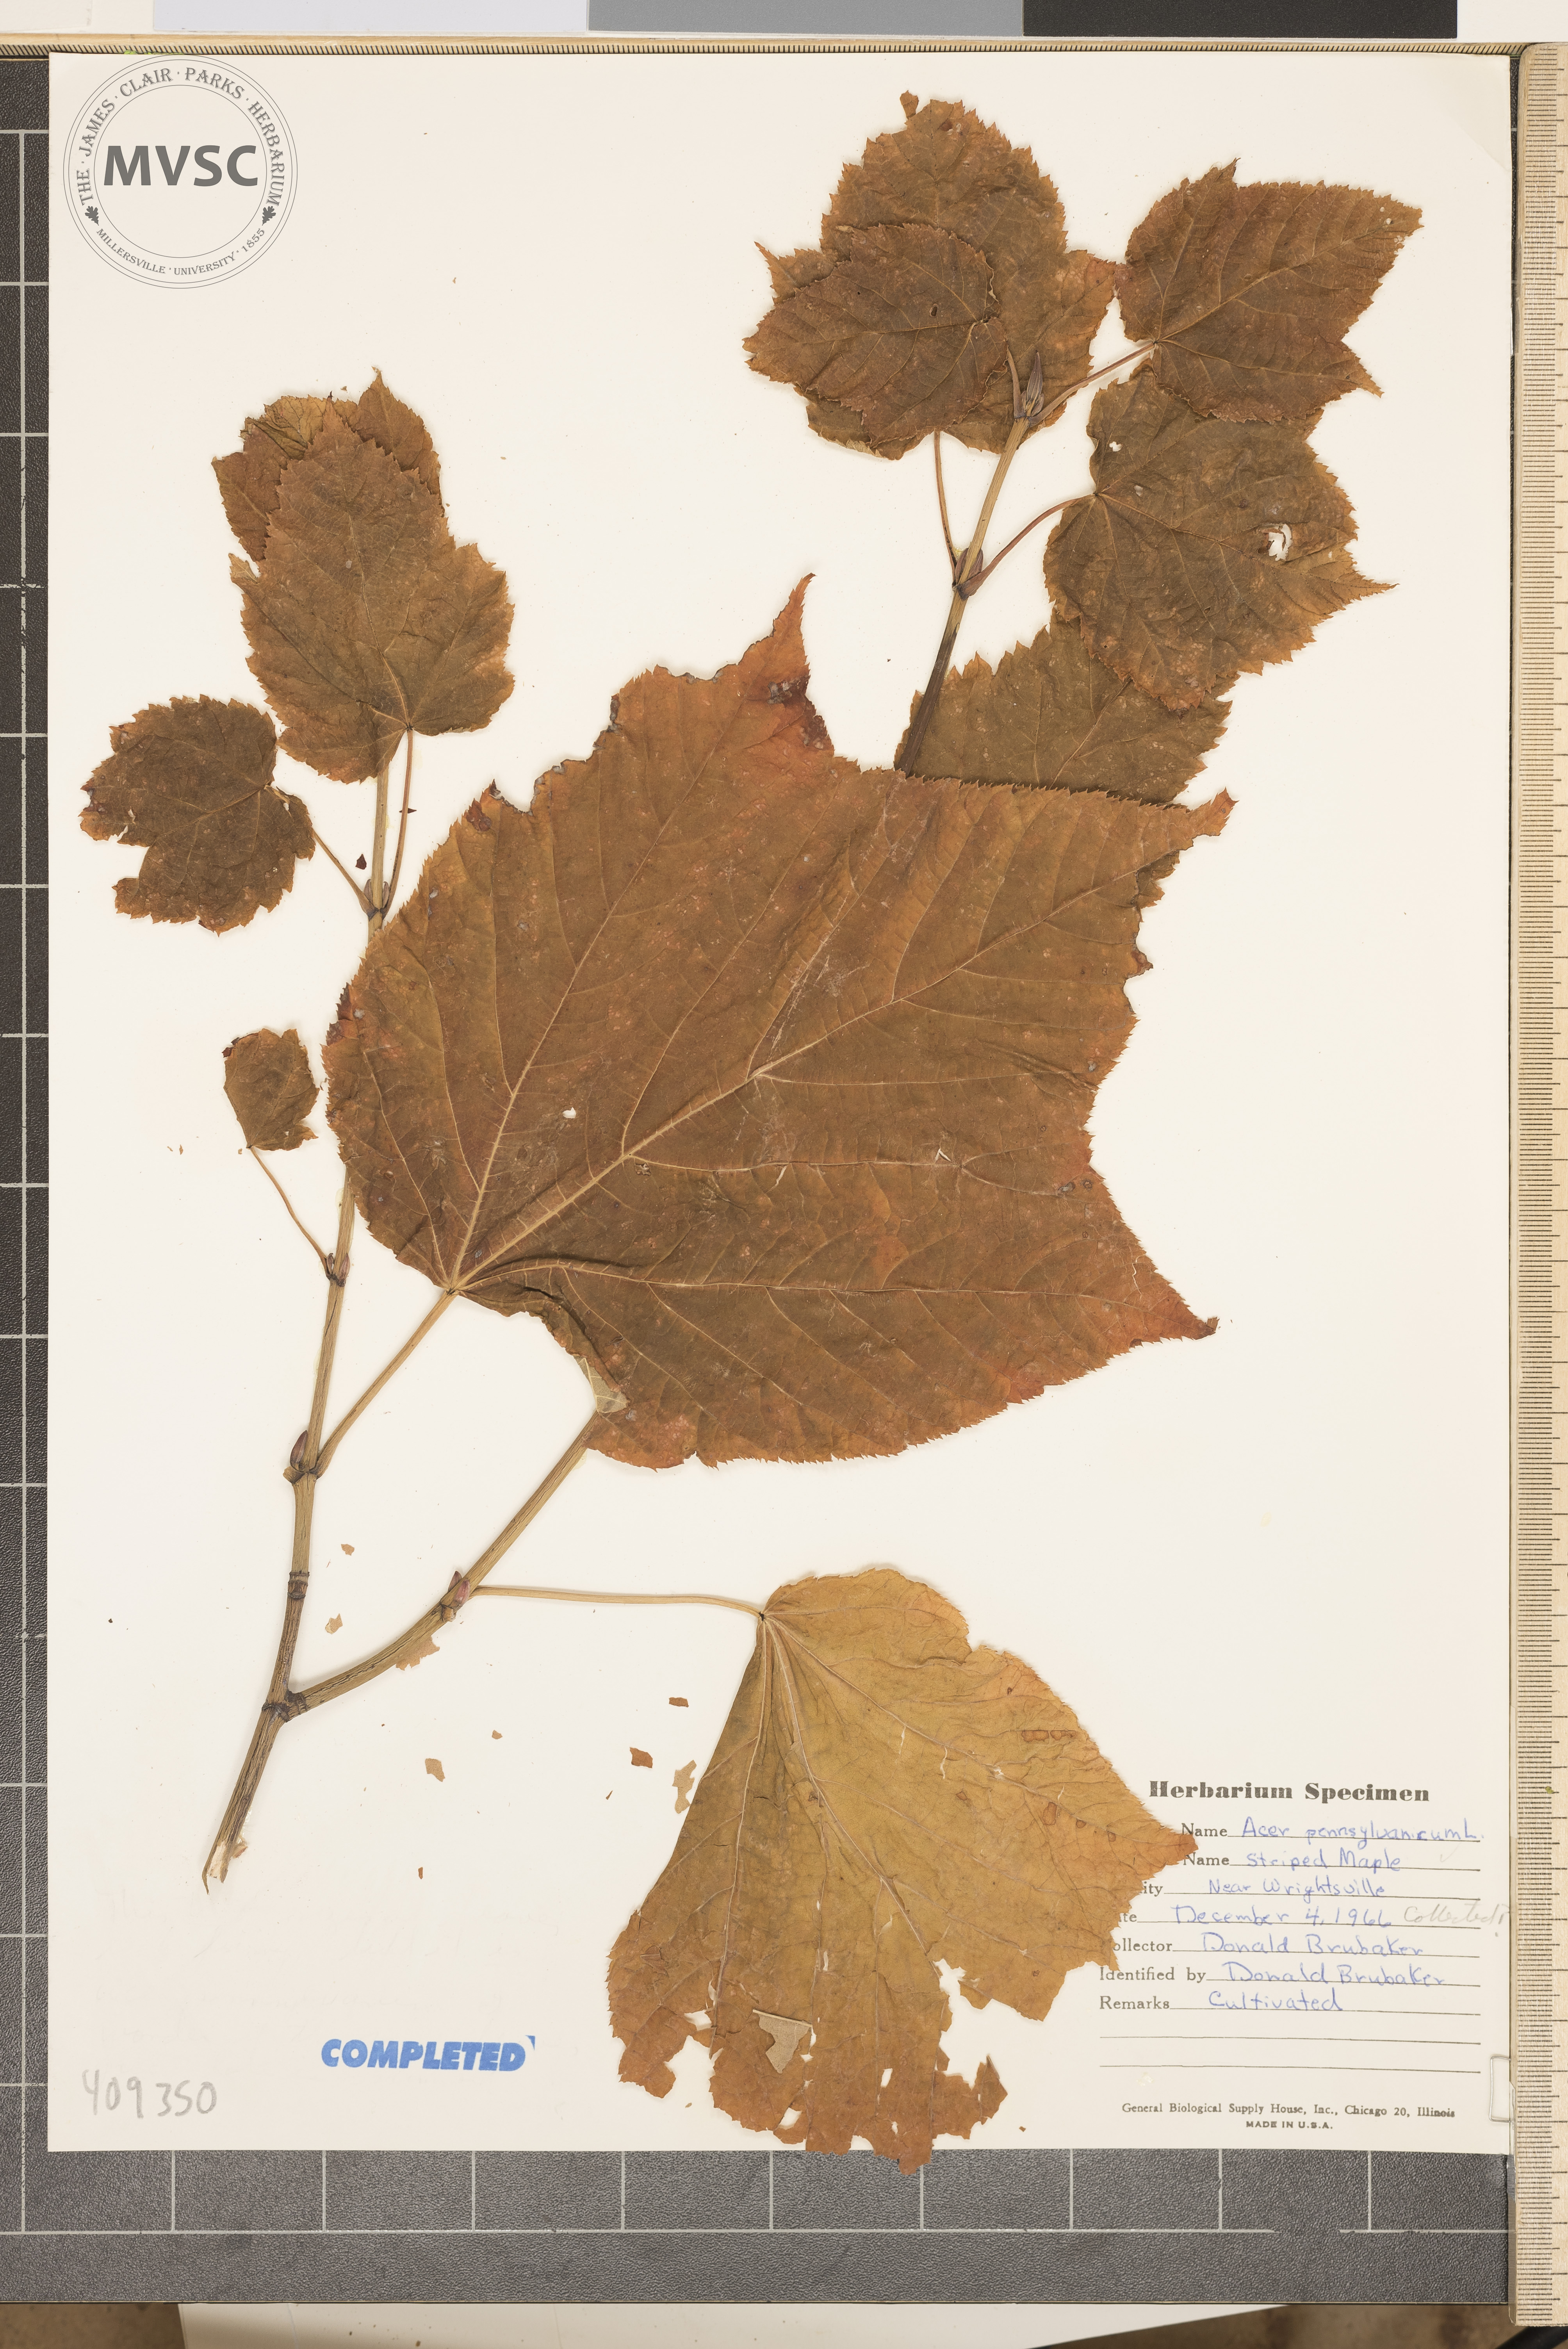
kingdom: Plantae
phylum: Tracheophyta
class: Magnoliopsida
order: Sapindales
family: Sapindaceae
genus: Acer
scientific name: Acer pensylvanicum
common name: Moosewood
